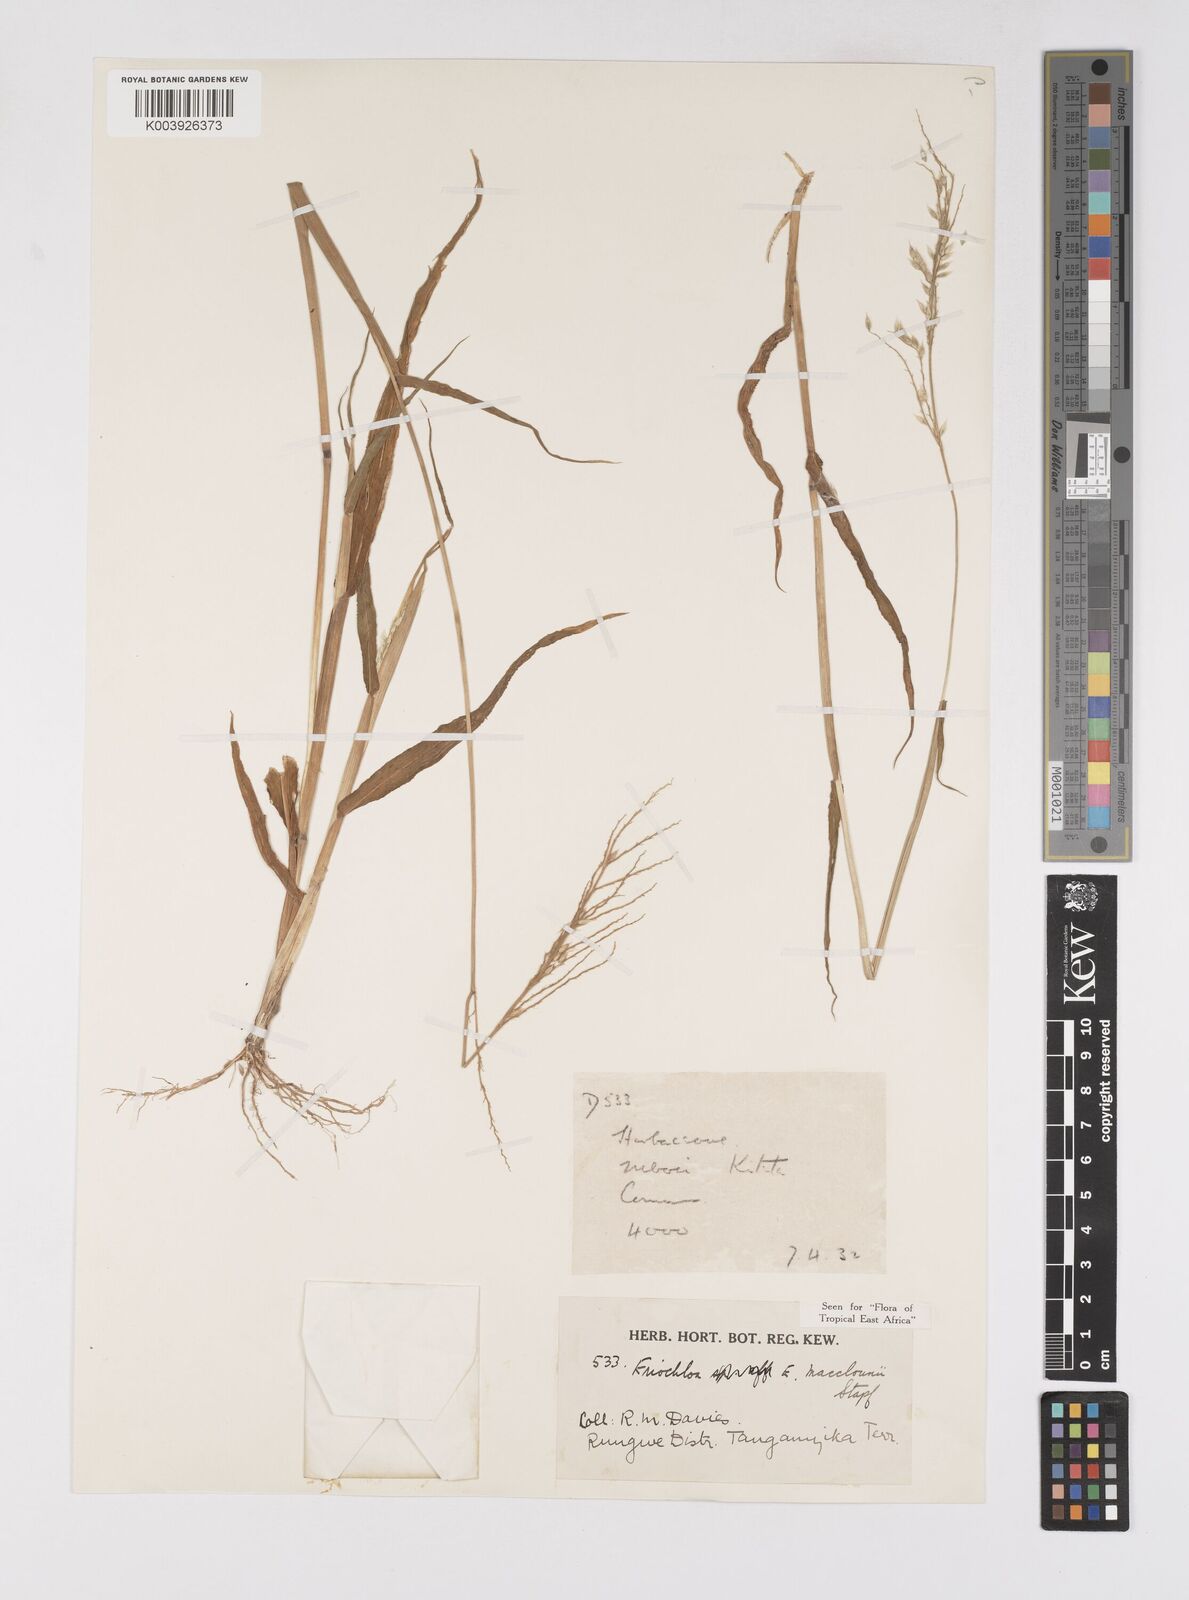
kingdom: Plantae
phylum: Tracheophyta
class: Liliopsida
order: Poales
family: Poaceae
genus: Eriochloa
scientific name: Eriochloa macclounii
